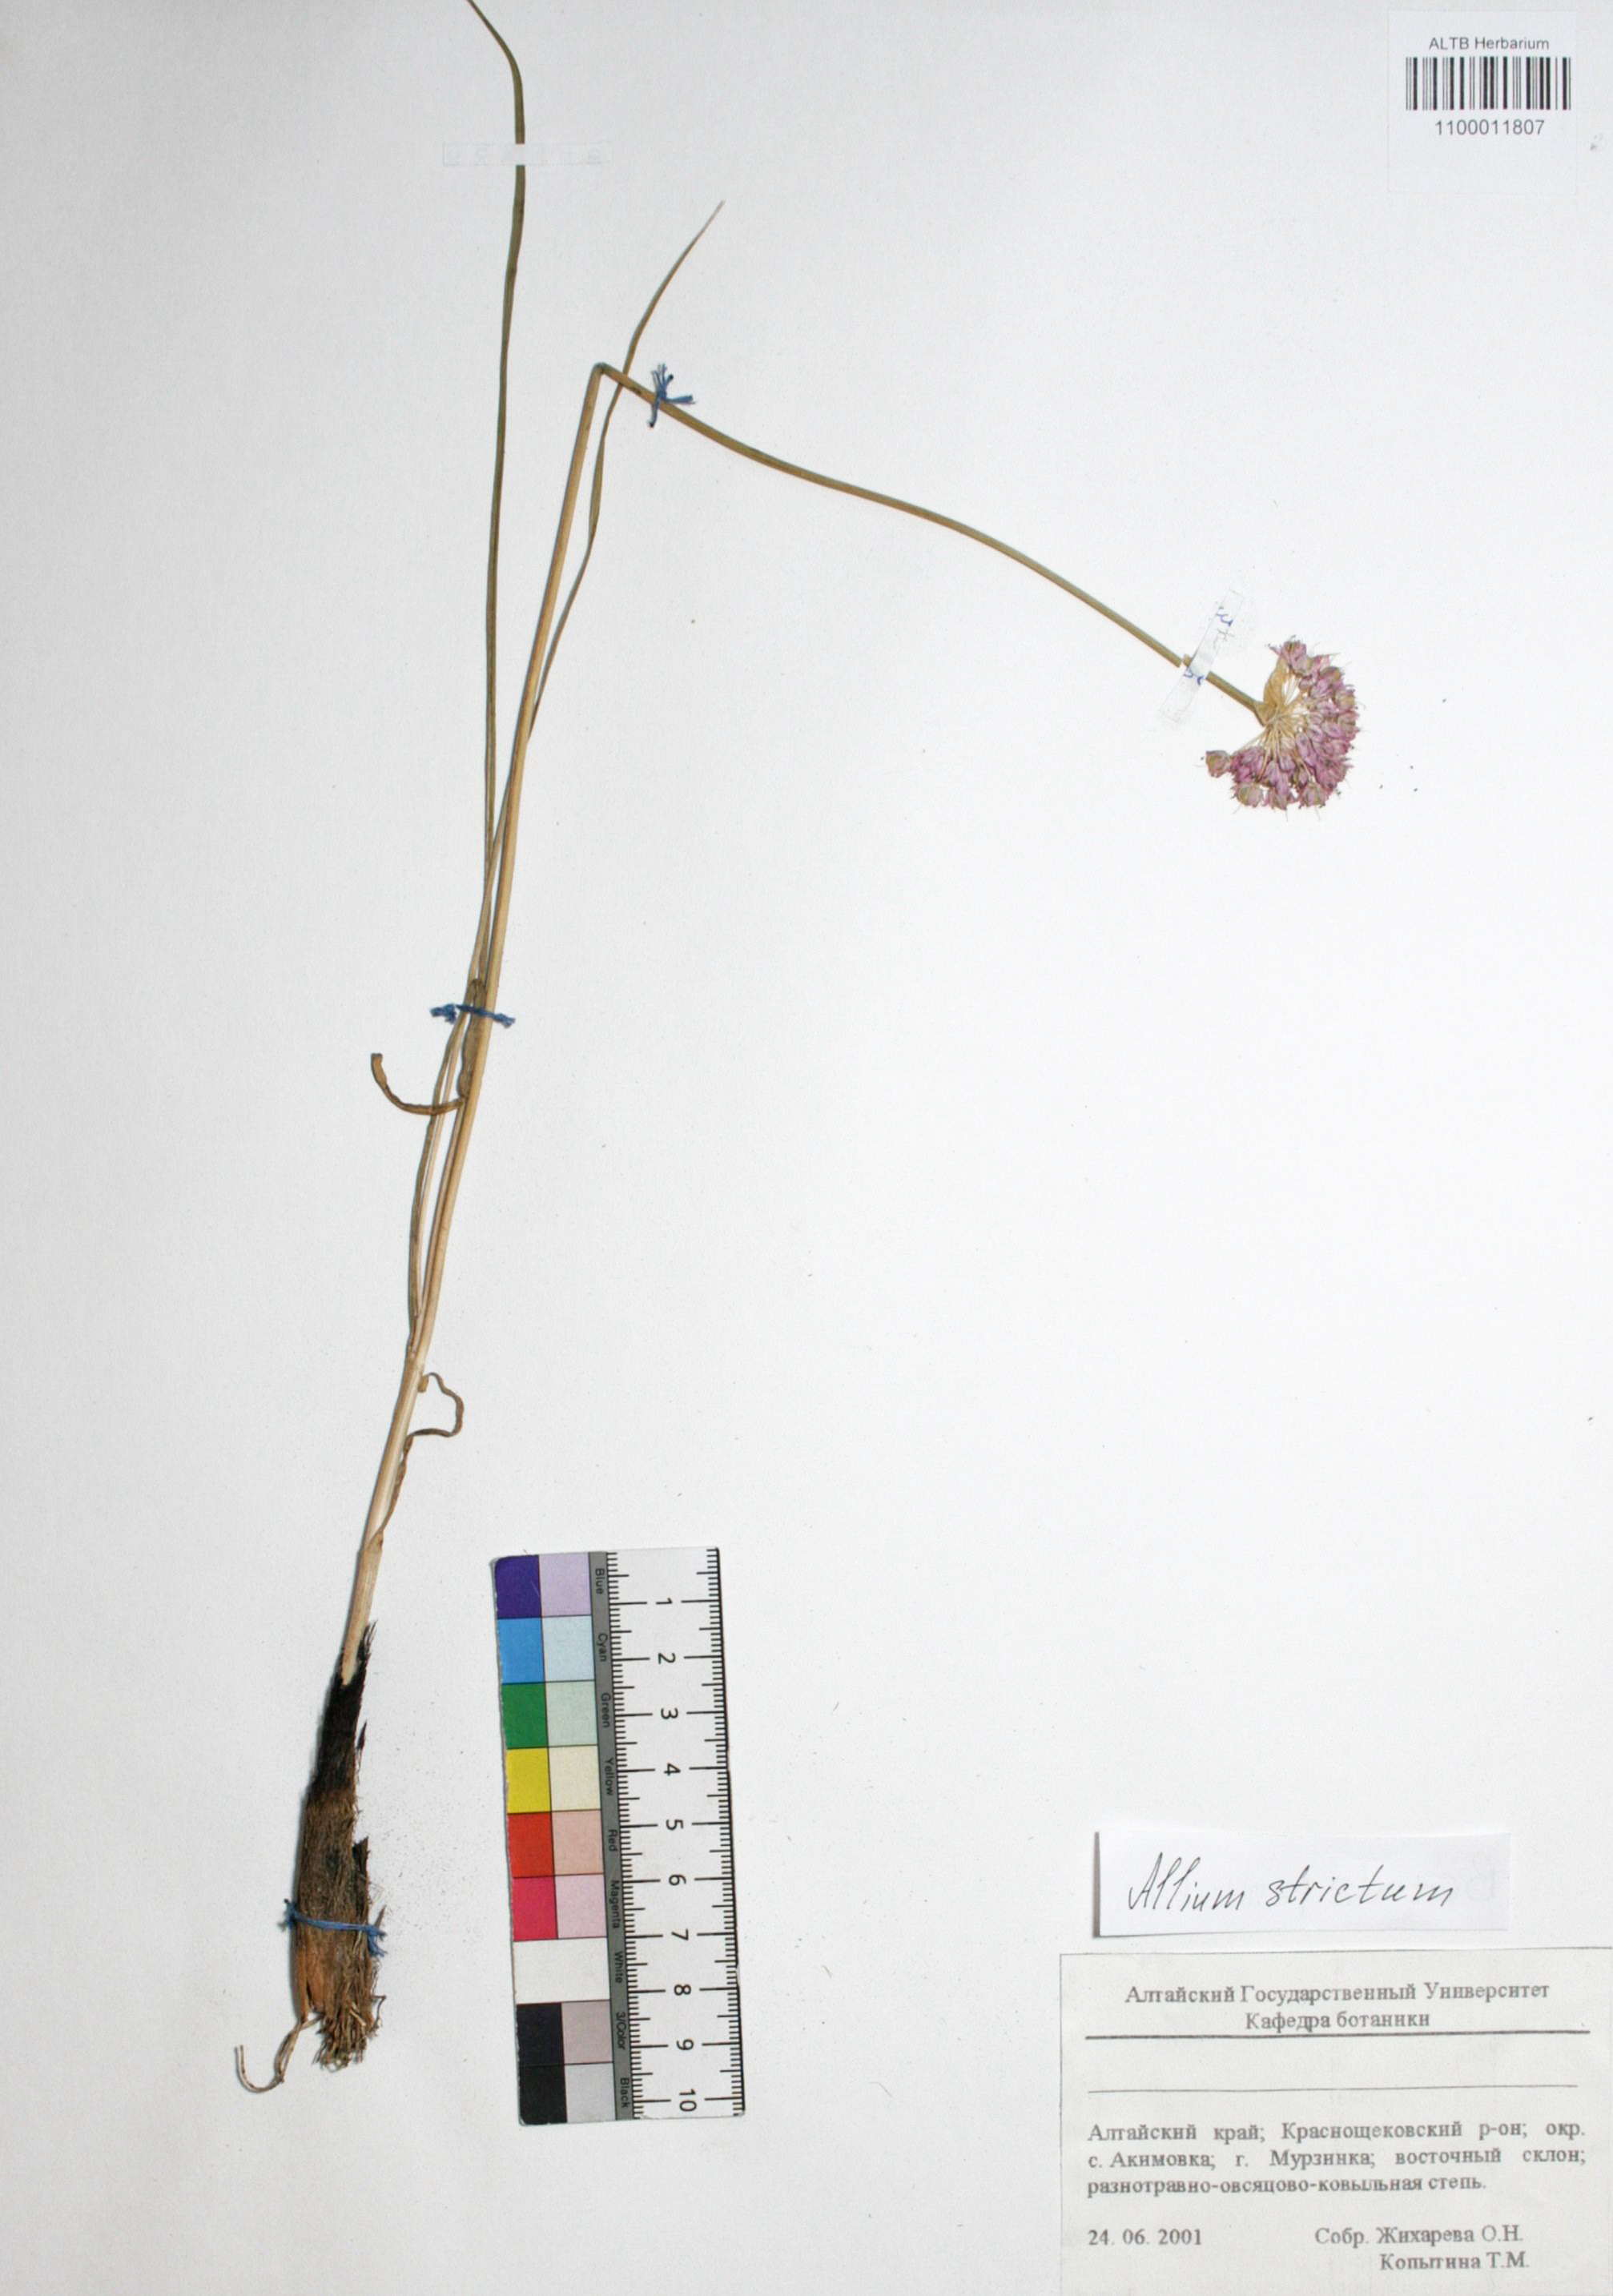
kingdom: Plantae
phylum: Tracheophyta
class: Liliopsida
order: Asparagales
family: Amaryllidaceae
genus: Allium
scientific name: Allium strictum
